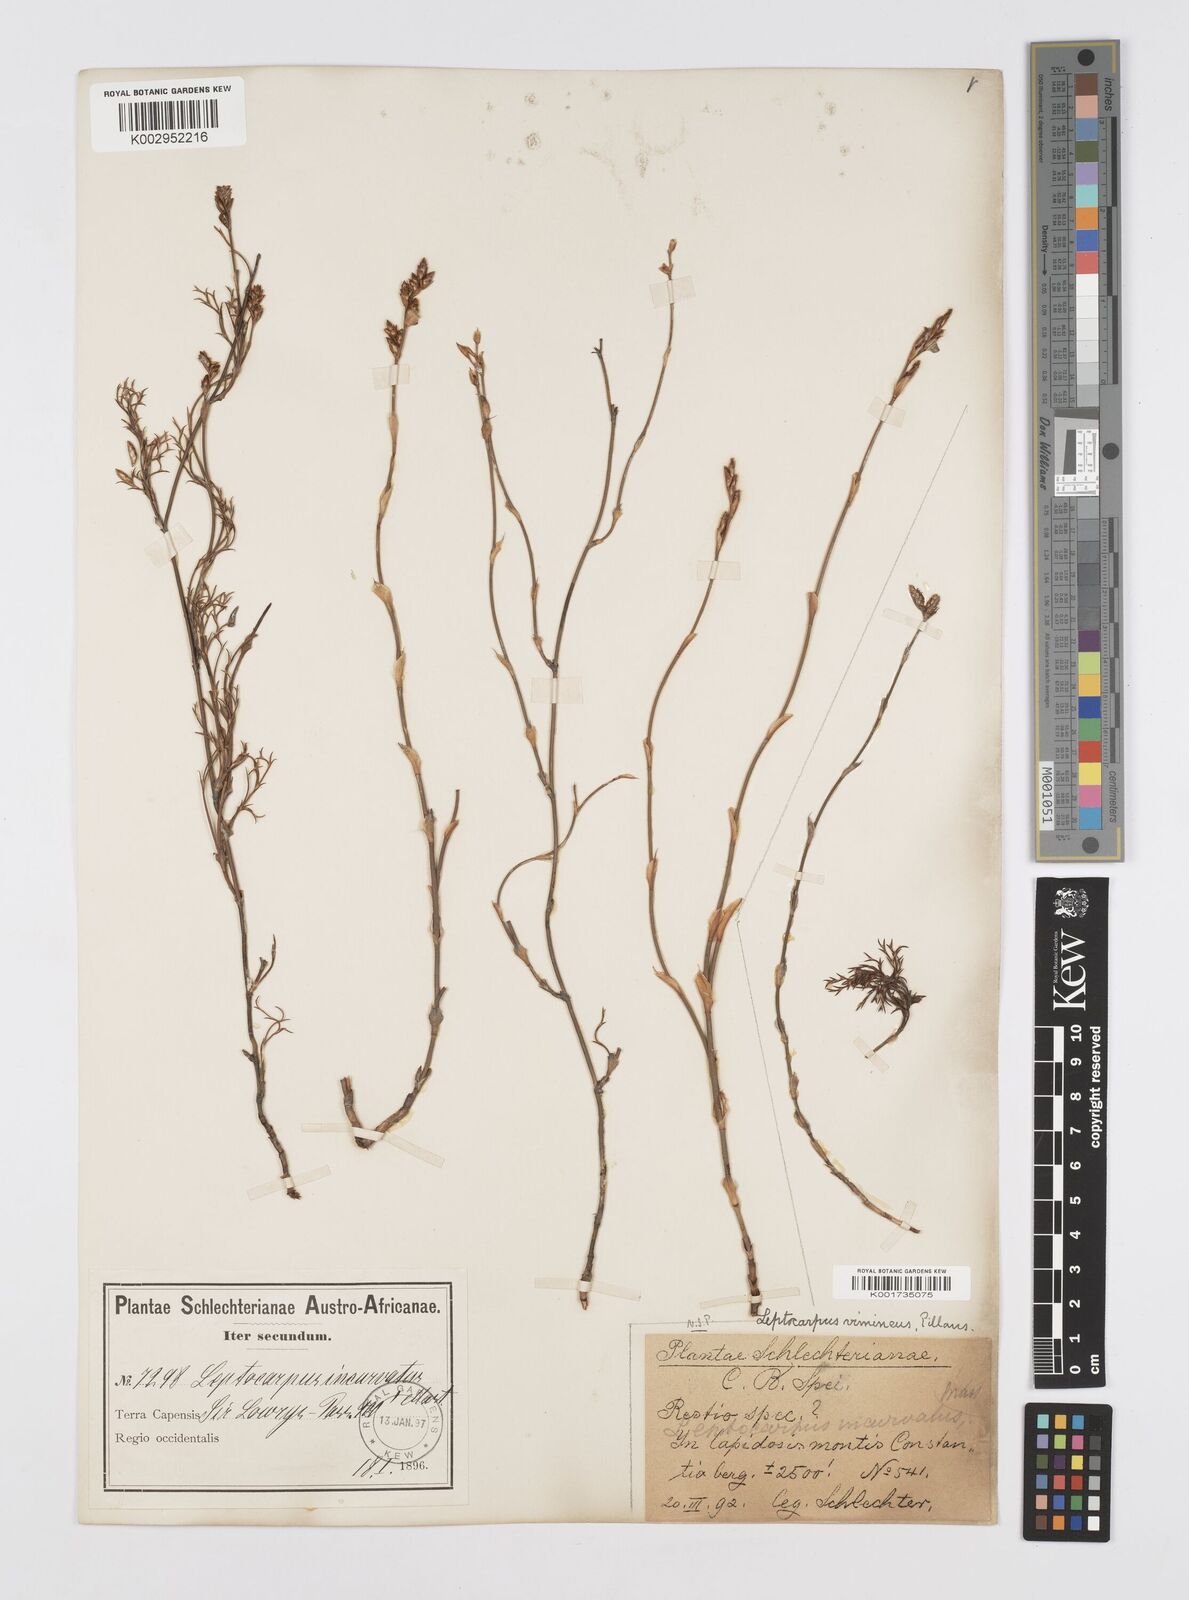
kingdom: Plantae
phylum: Tracheophyta
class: Liliopsida
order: Poales
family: Restionaceae
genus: Restio
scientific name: Restio vimineus
